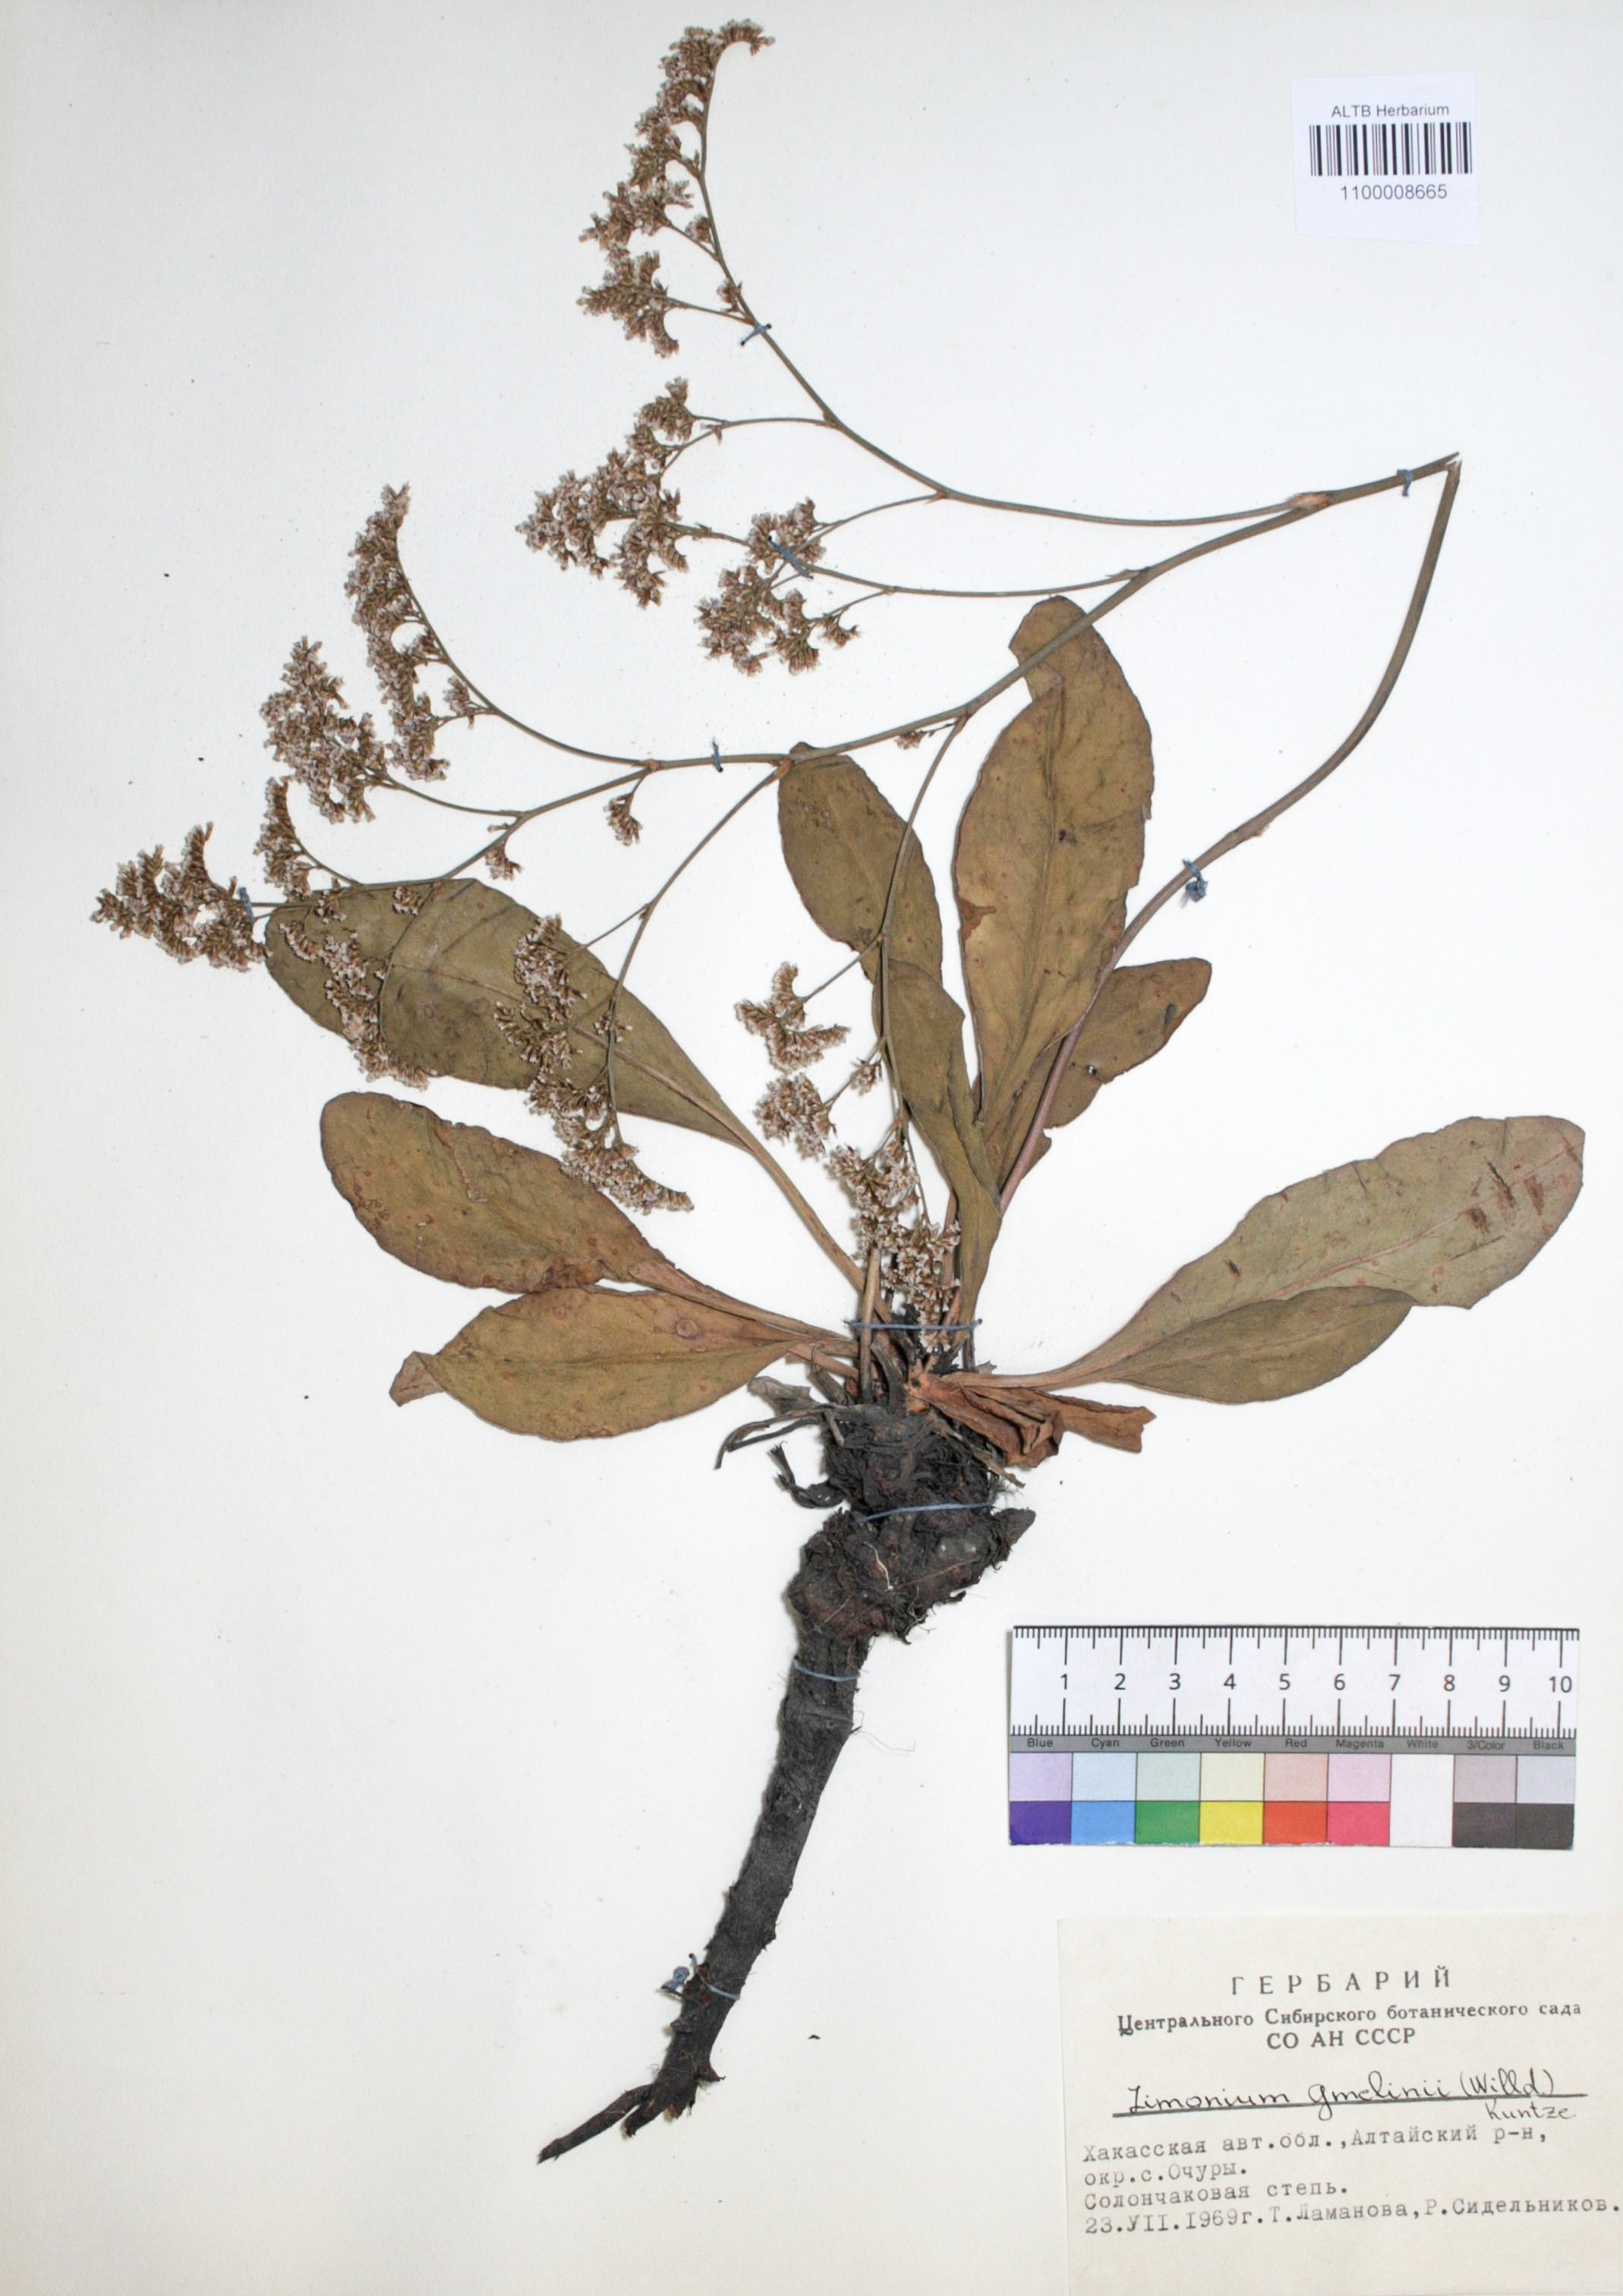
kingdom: Plantae
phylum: Tracheophyta
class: Magnoliopsida
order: Caryophyllales
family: Plumbaginaceae
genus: Limonium
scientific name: Limonium gmelini
